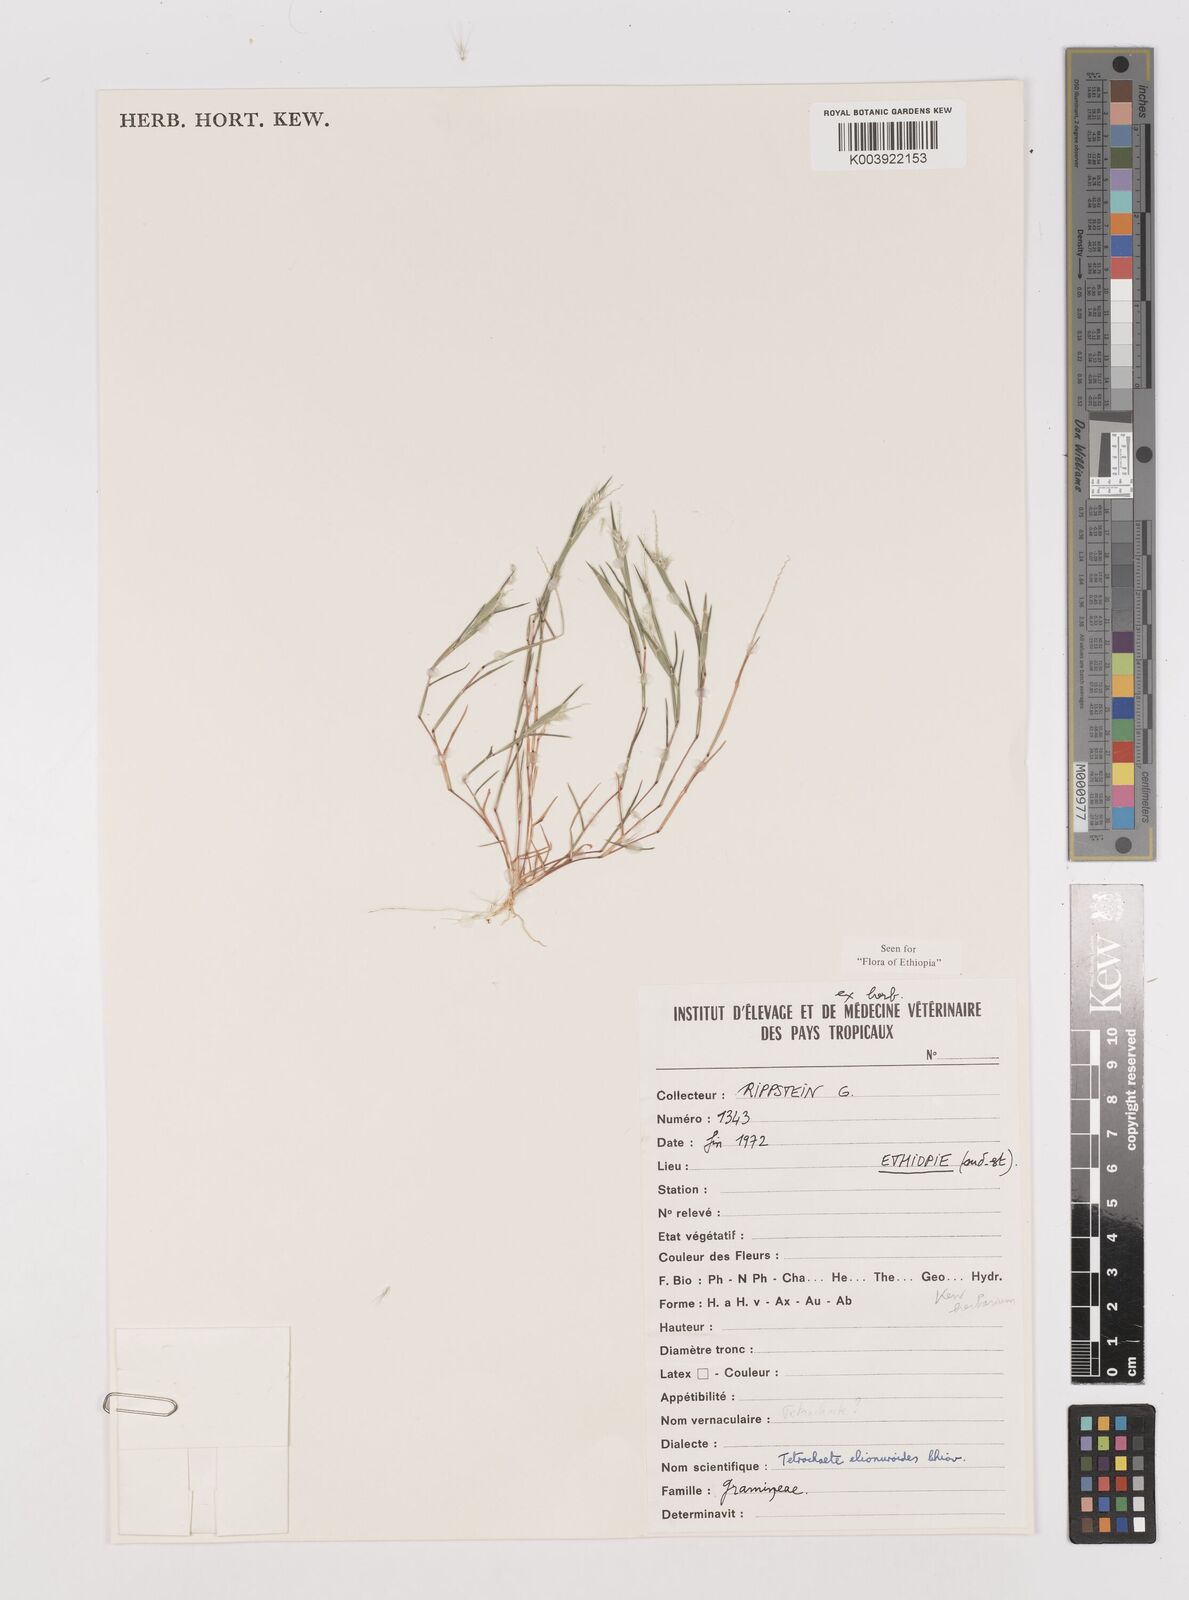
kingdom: Plantae
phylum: Tracheophyta
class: Liliopsida
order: Poales
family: Poaceae
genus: Tetrachaete
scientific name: Tetrachaete elionuroides
